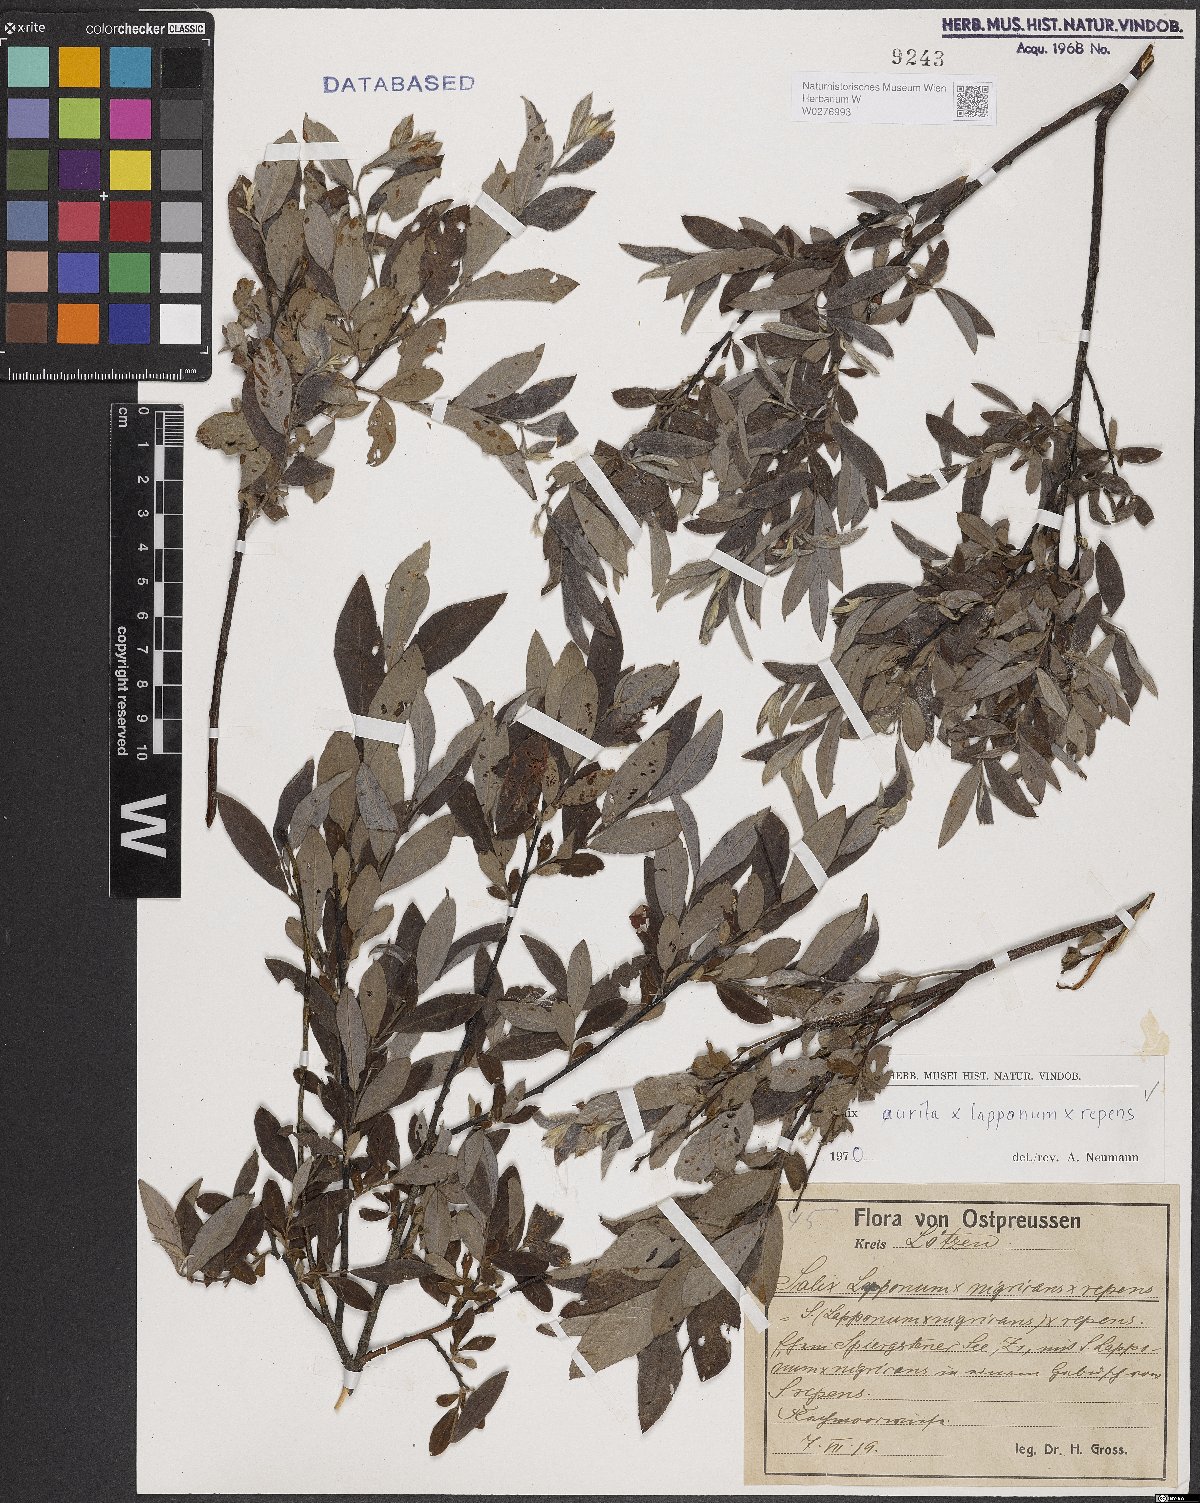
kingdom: Plantae
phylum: Tracheophyta
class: Magnoliopsida
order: Malpighiales
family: Salicaceae
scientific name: Salicaceae
